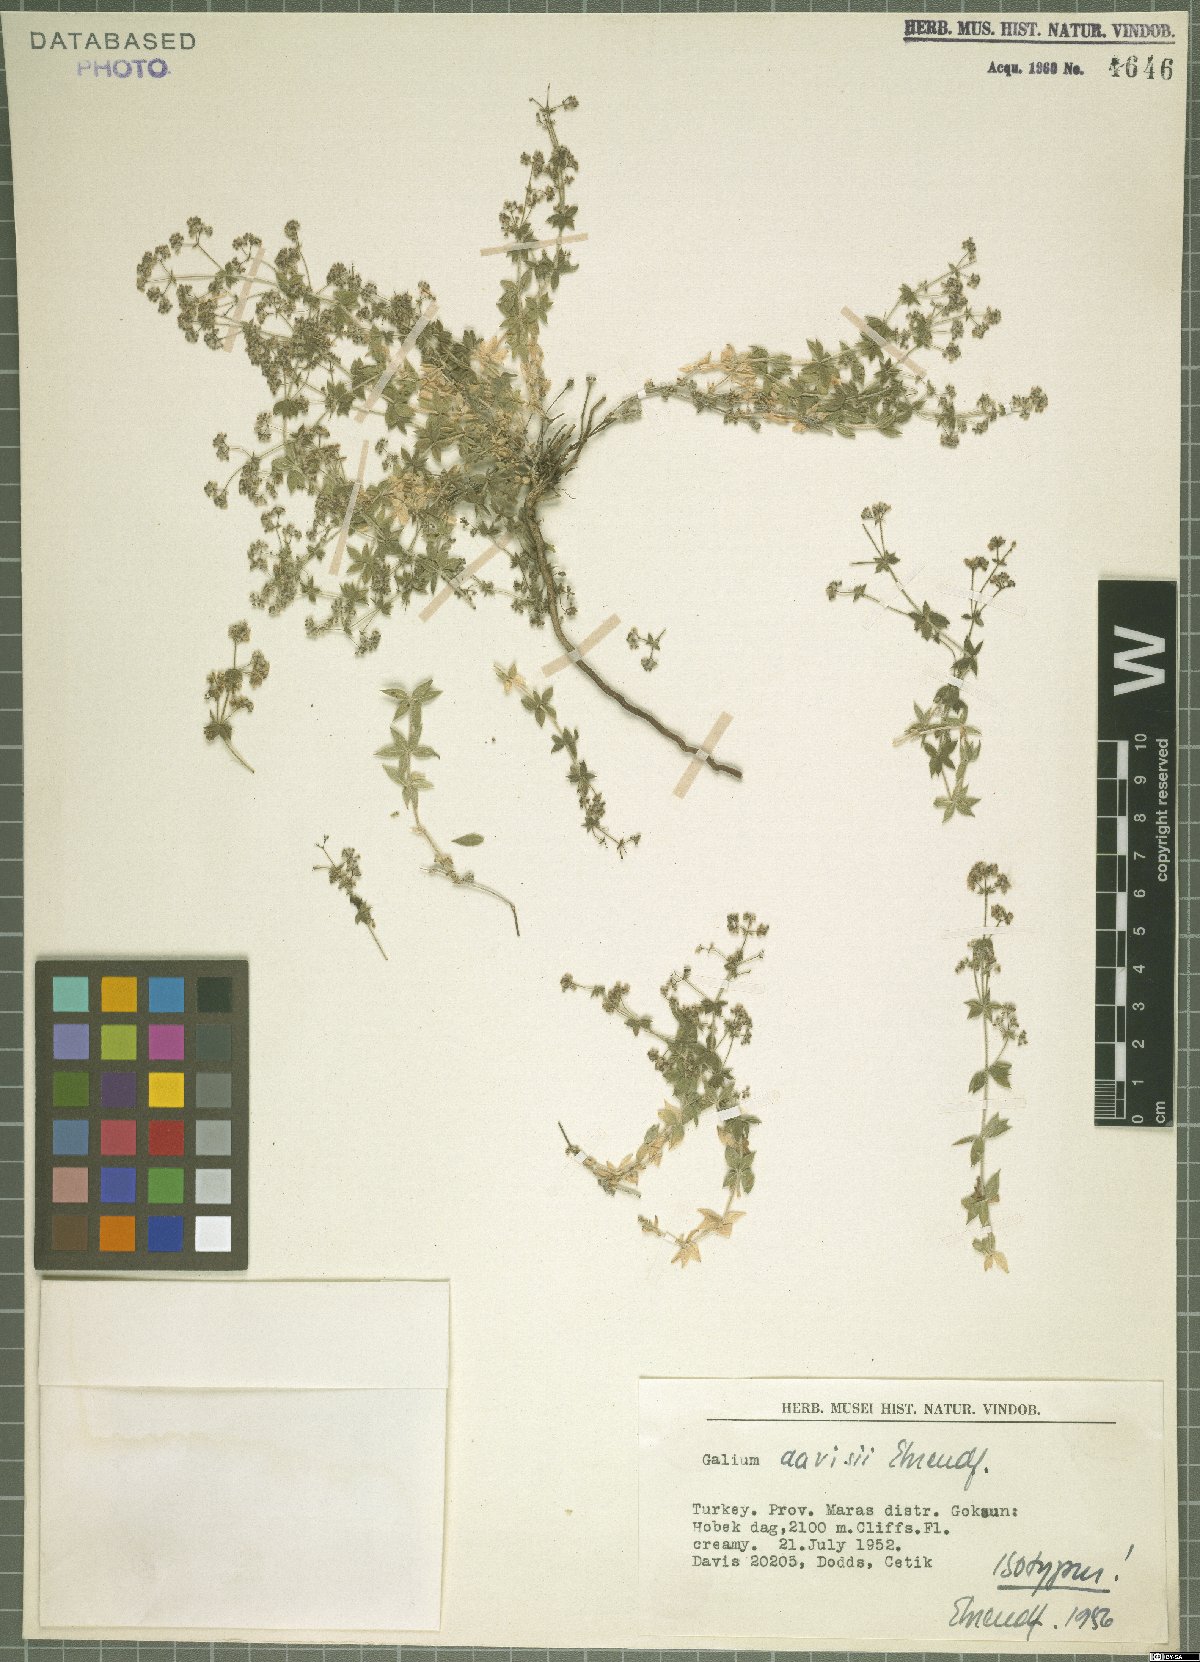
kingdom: Plantae
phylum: Tracheophyta
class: Magnoliopsida
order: Gentianales
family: Rubiaceae
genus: Galium
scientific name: Galium davisii
